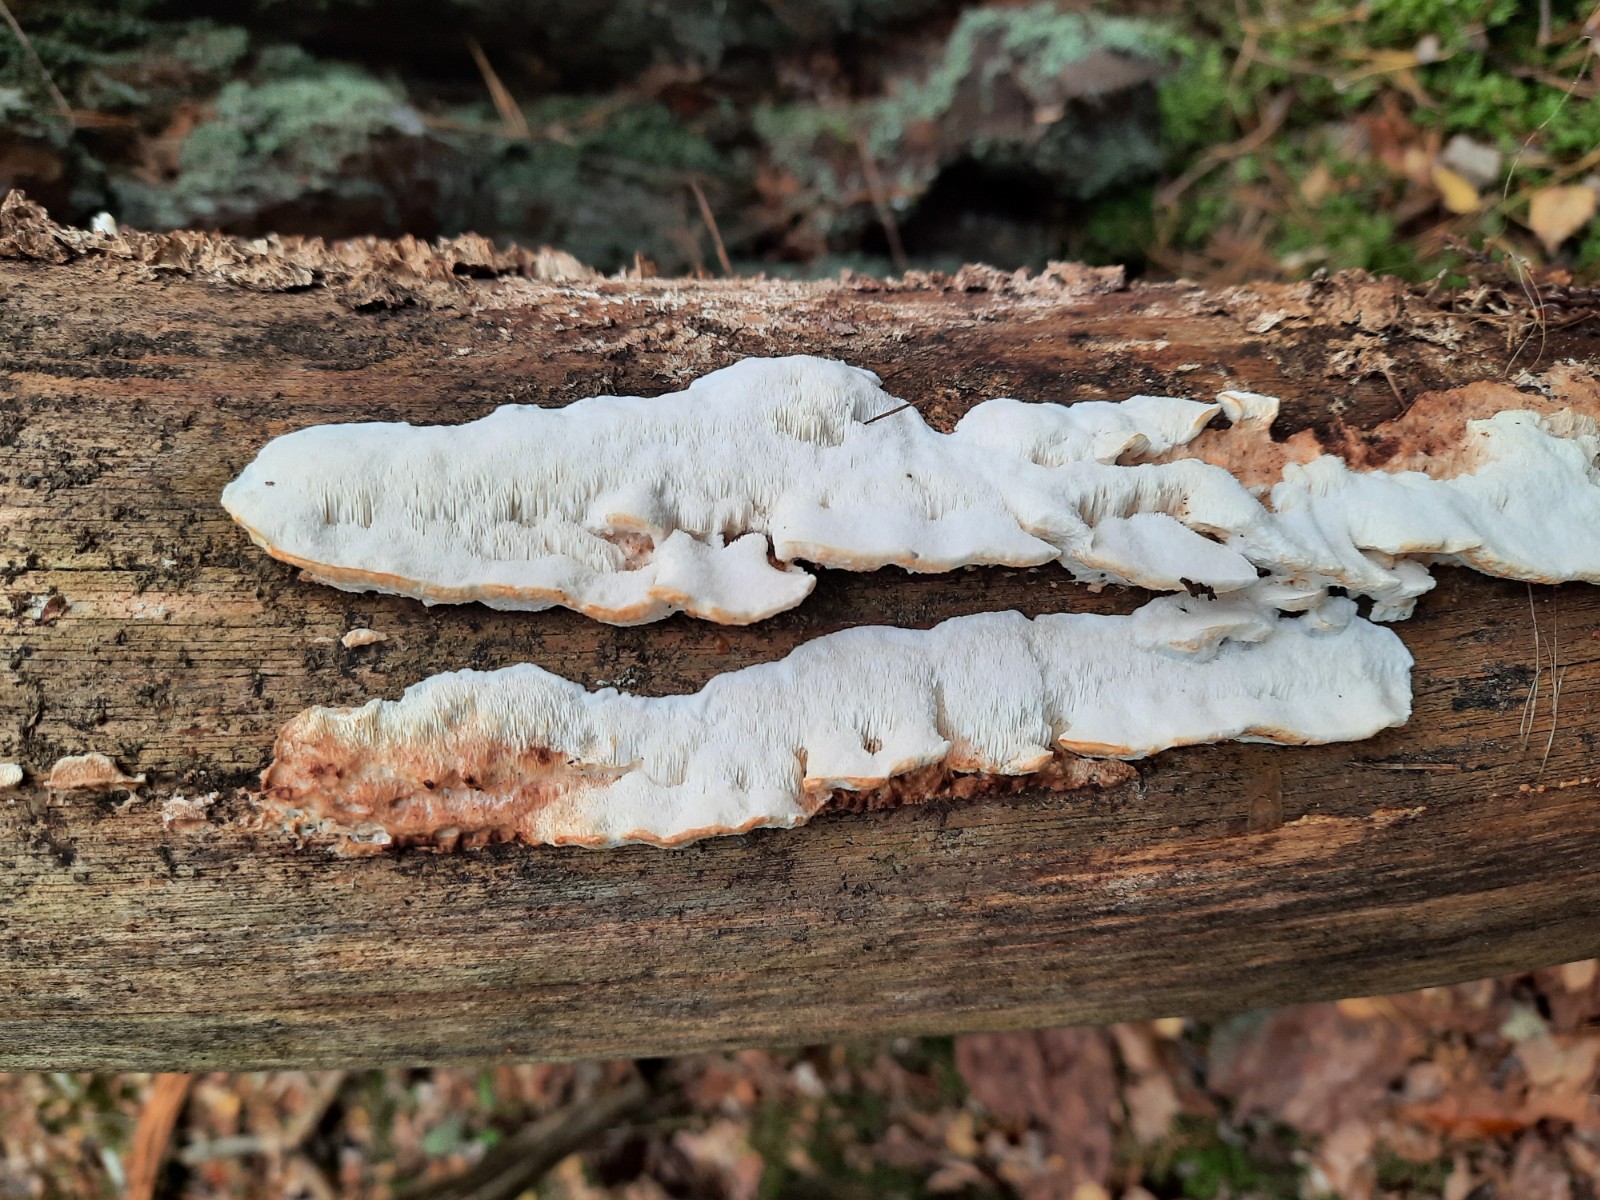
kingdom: Fungi
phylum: Basidiomycota
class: Agaricomycetes
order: Polyporales
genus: Fuscopostia
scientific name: Fuscopostia fragilis
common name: brunende kødporesvamp
